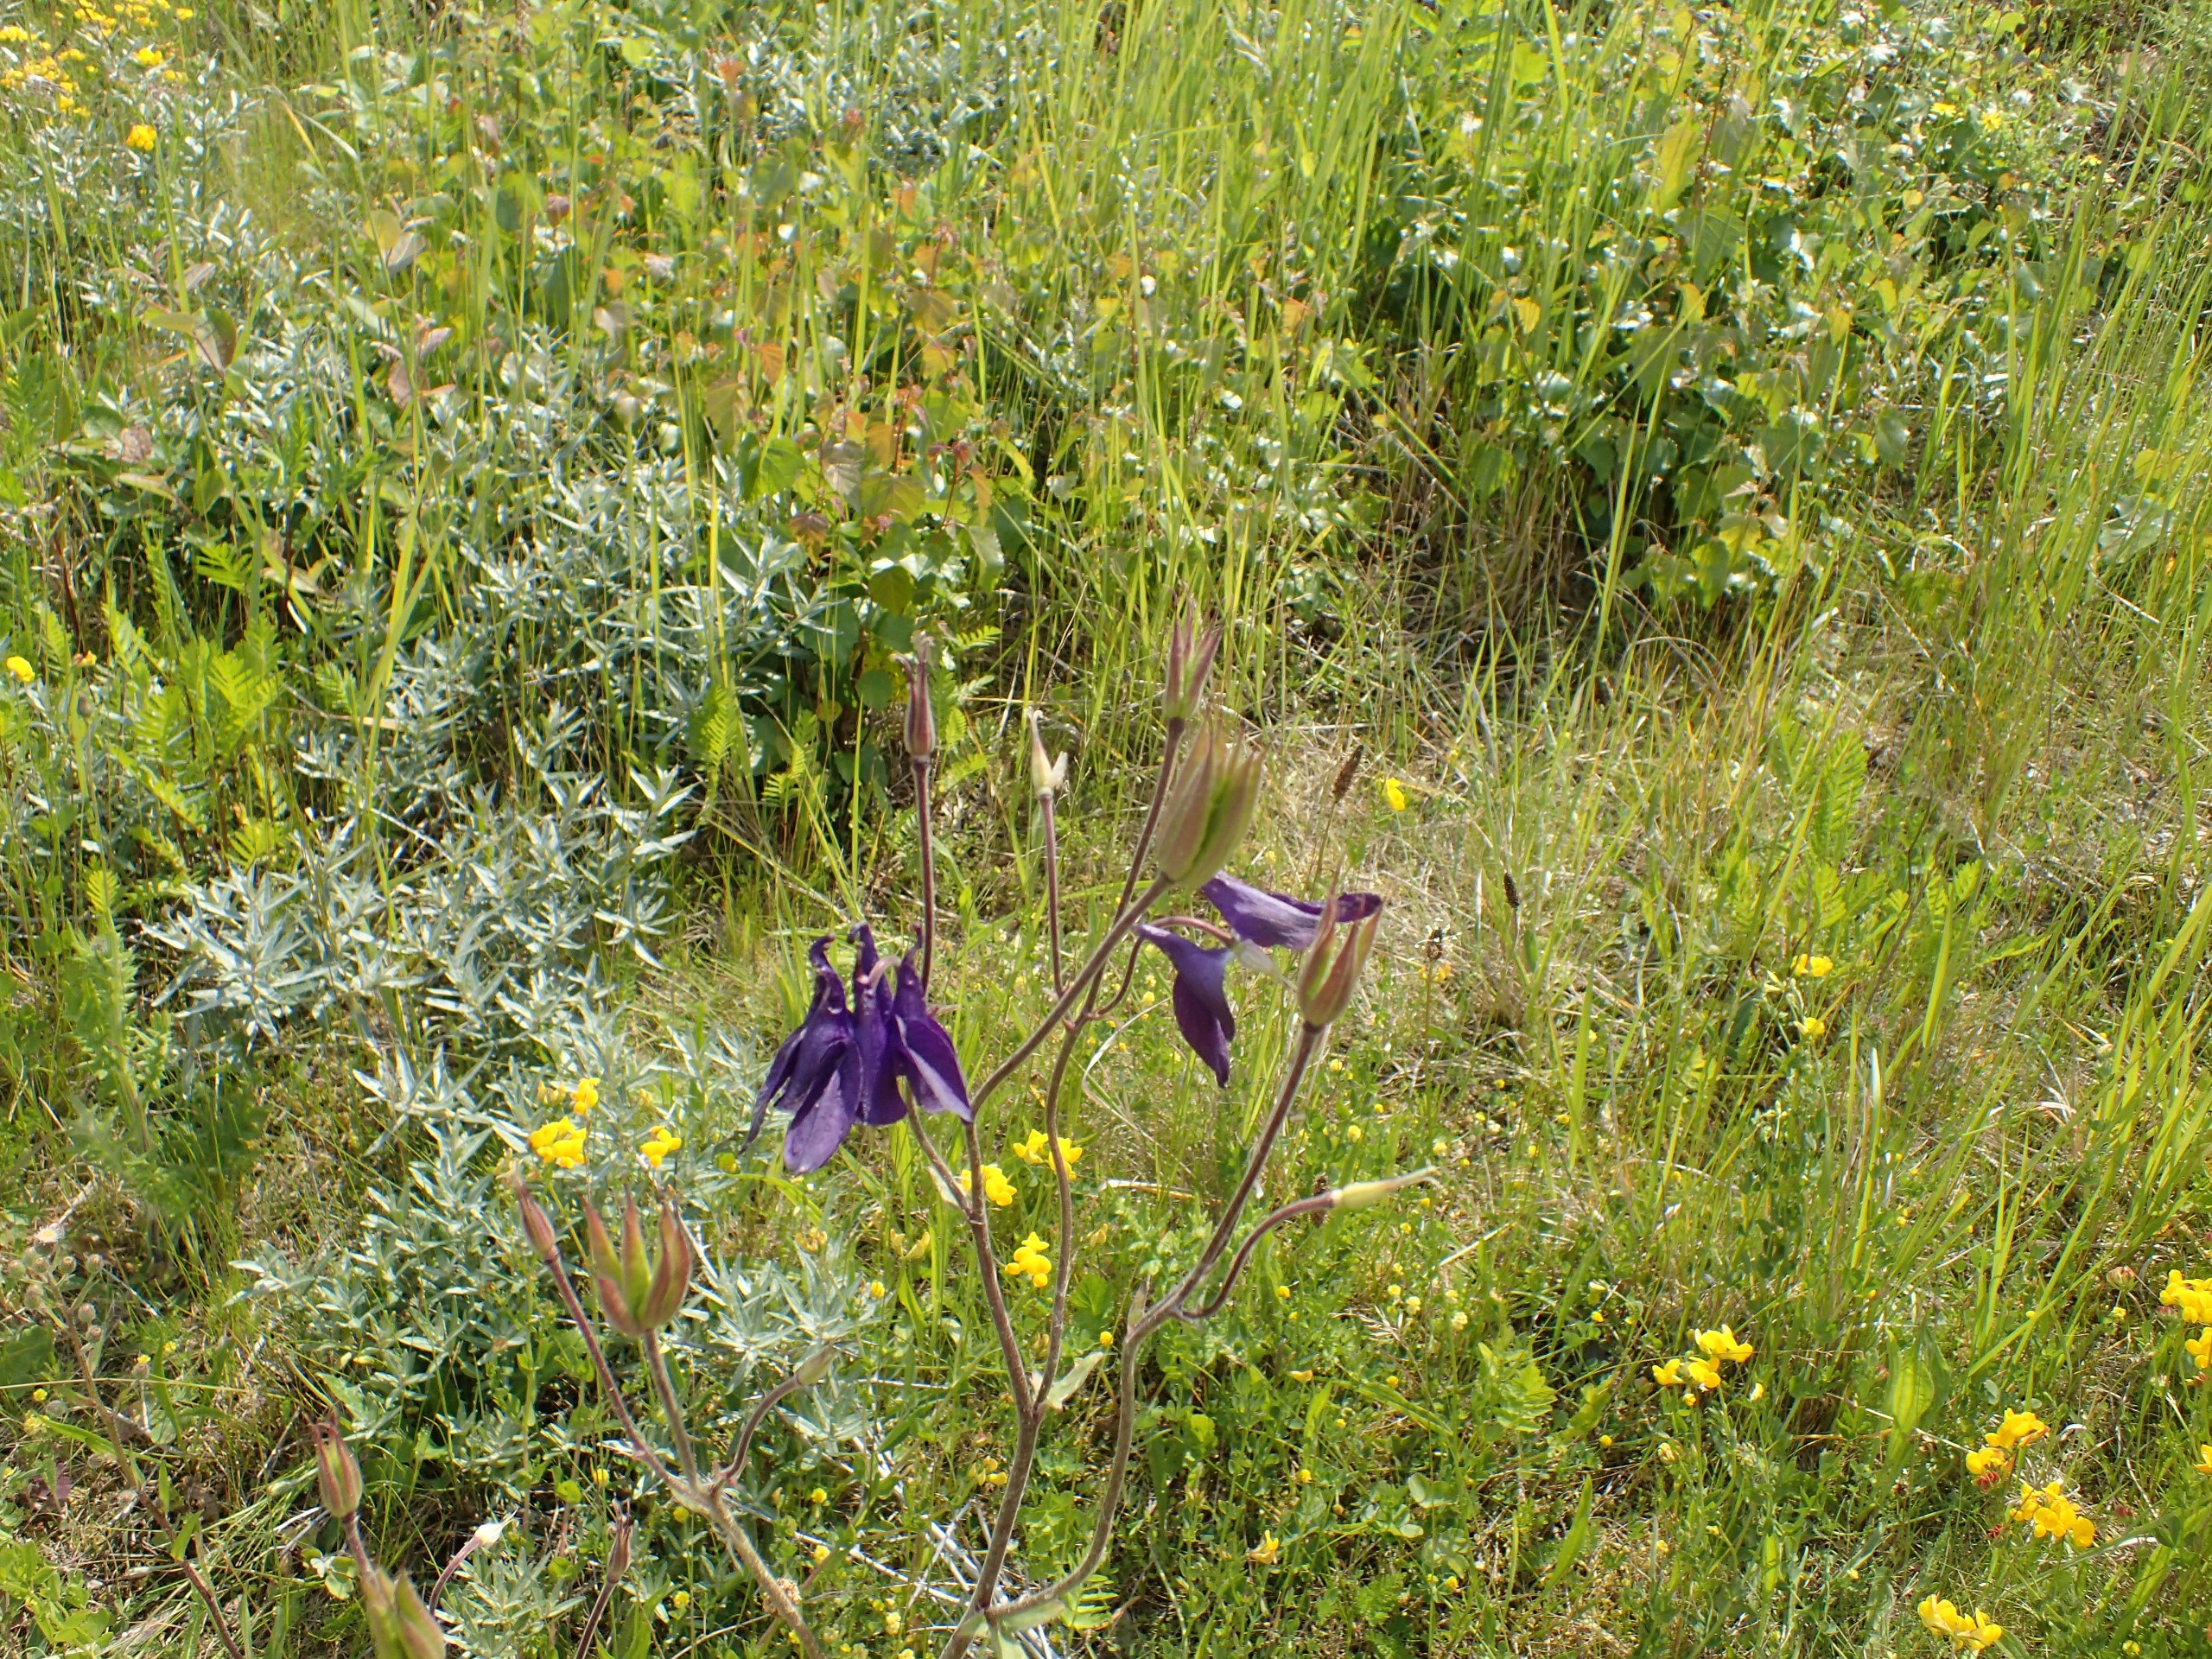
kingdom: Plantae
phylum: Tracheophyta
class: Magnoliopsida
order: Ranunculales
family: Ranunculaceae
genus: Aquilegia
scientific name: Aquilegia vulgaris
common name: Akeleje
